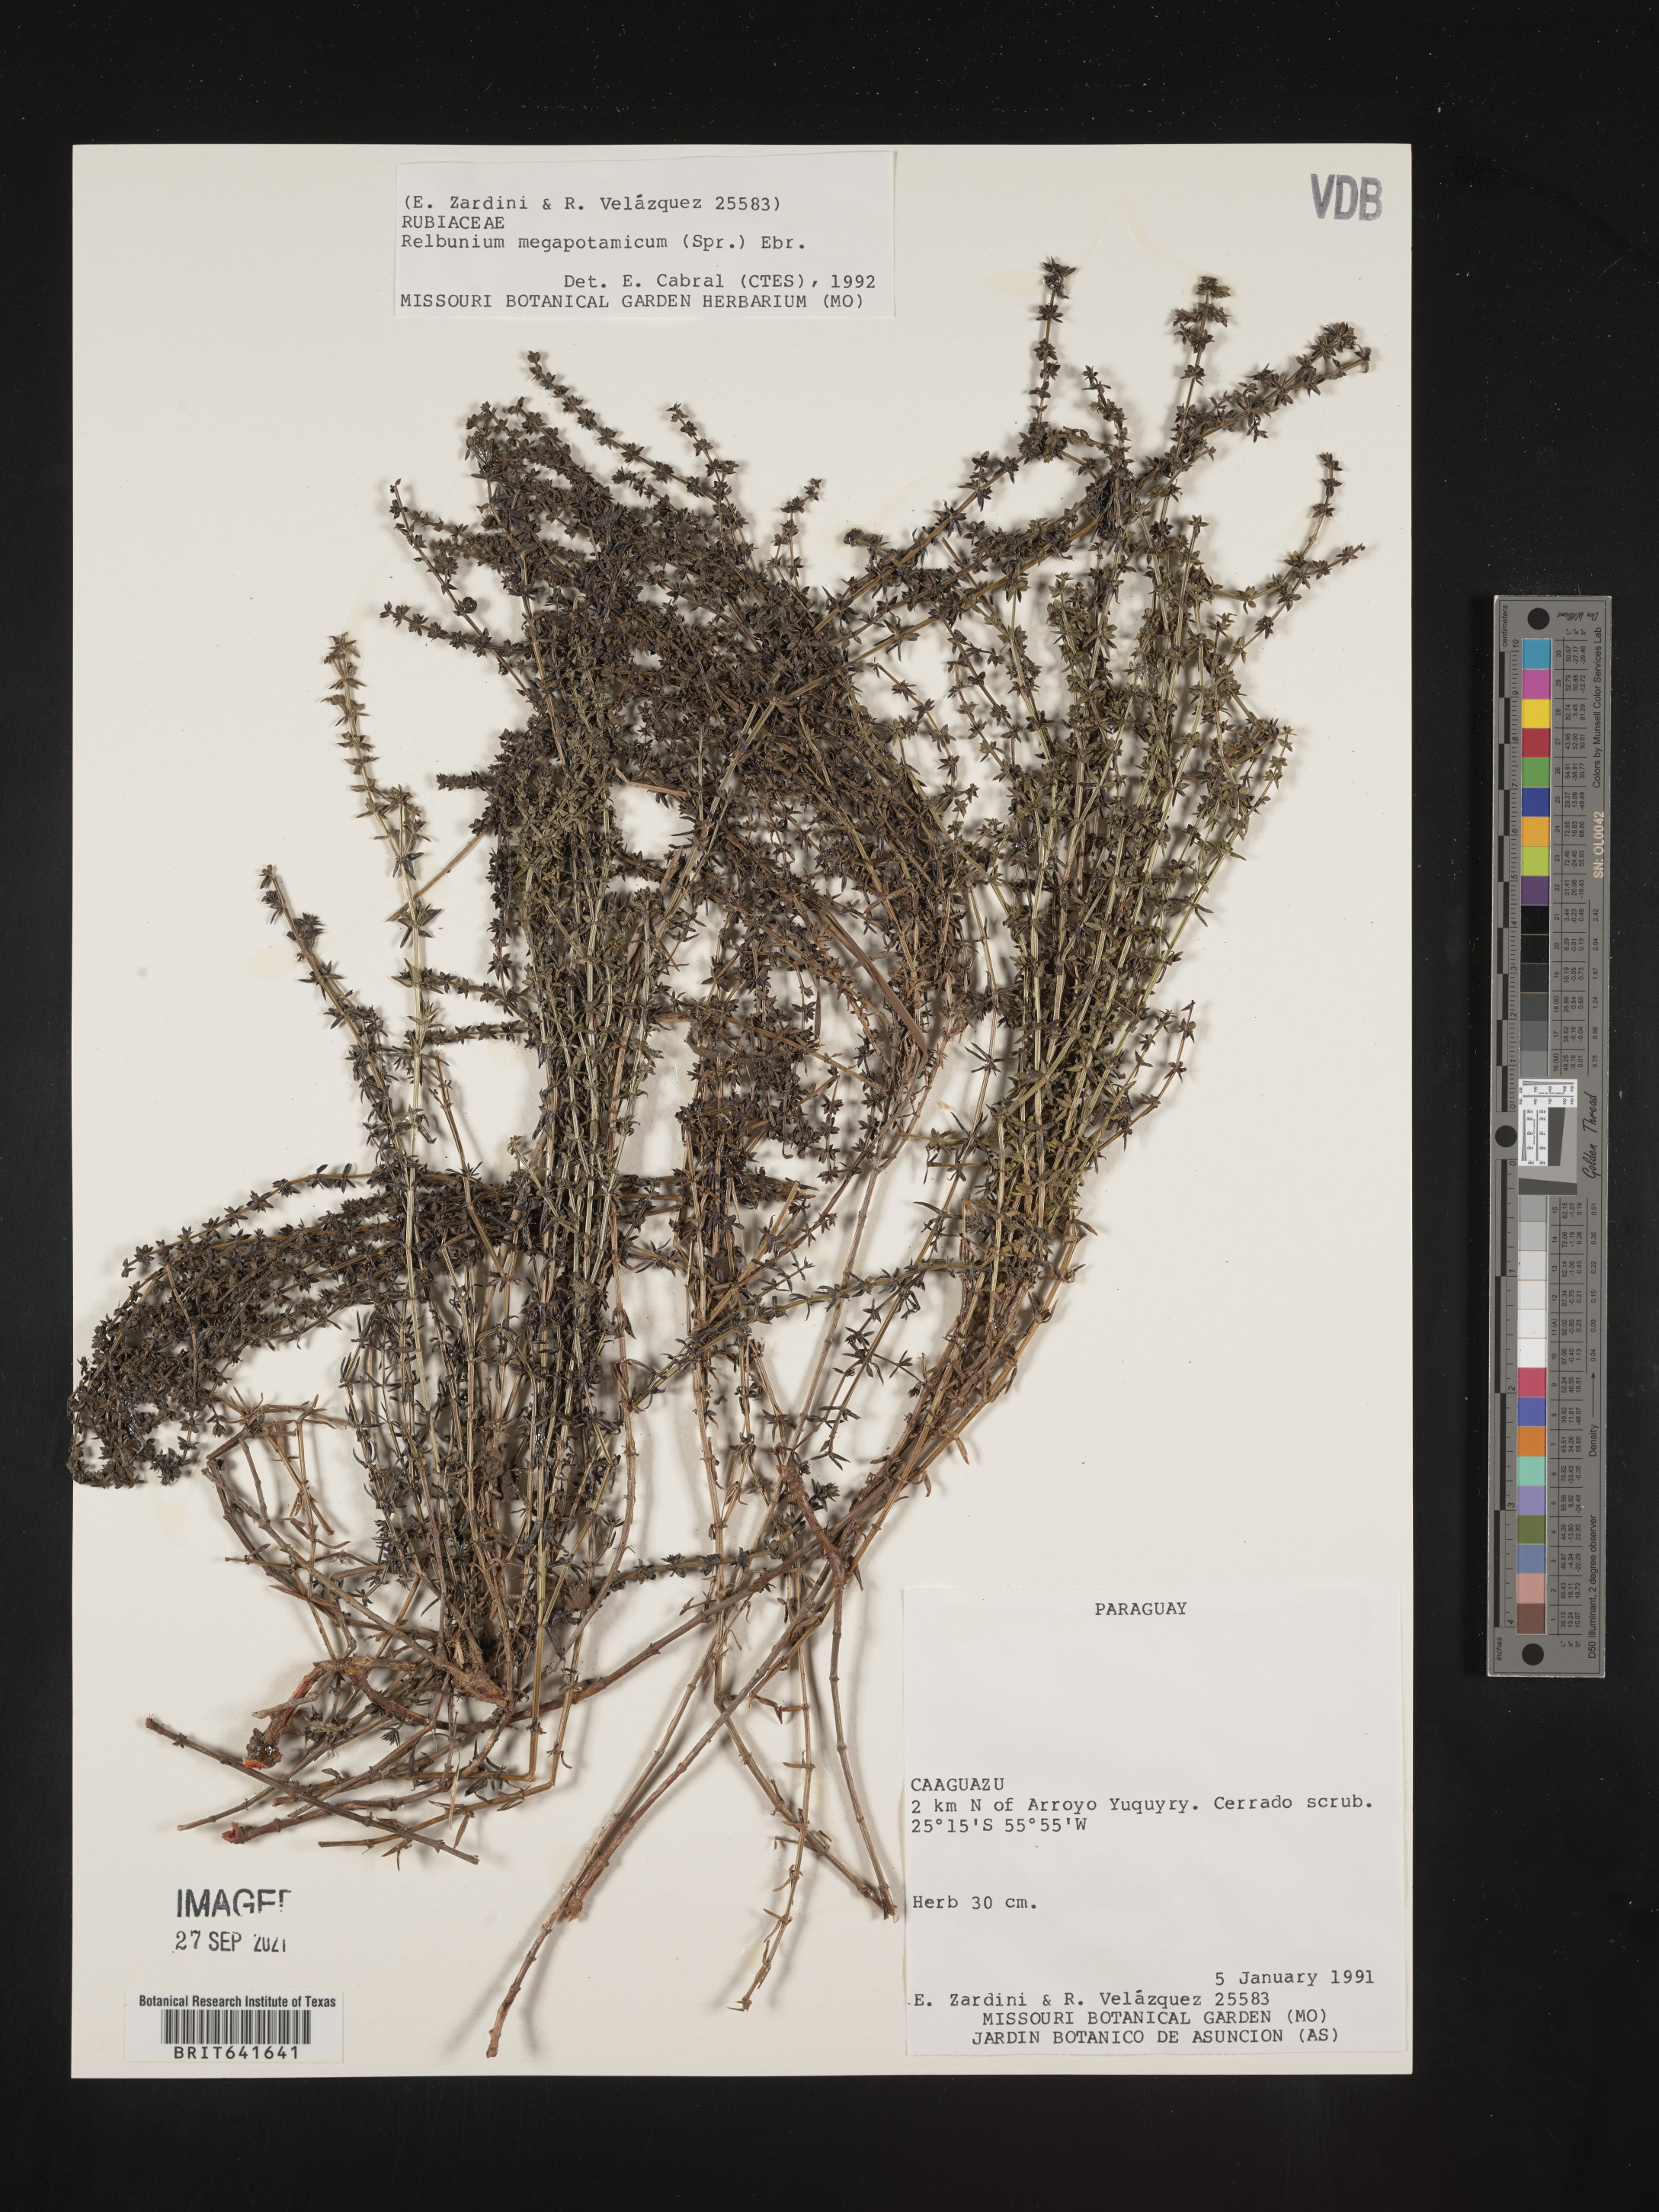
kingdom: Plantae
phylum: Tracheophyta
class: Magnoliopsida
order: Gentianales
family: Rubiaceae
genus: Galium
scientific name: Galium
